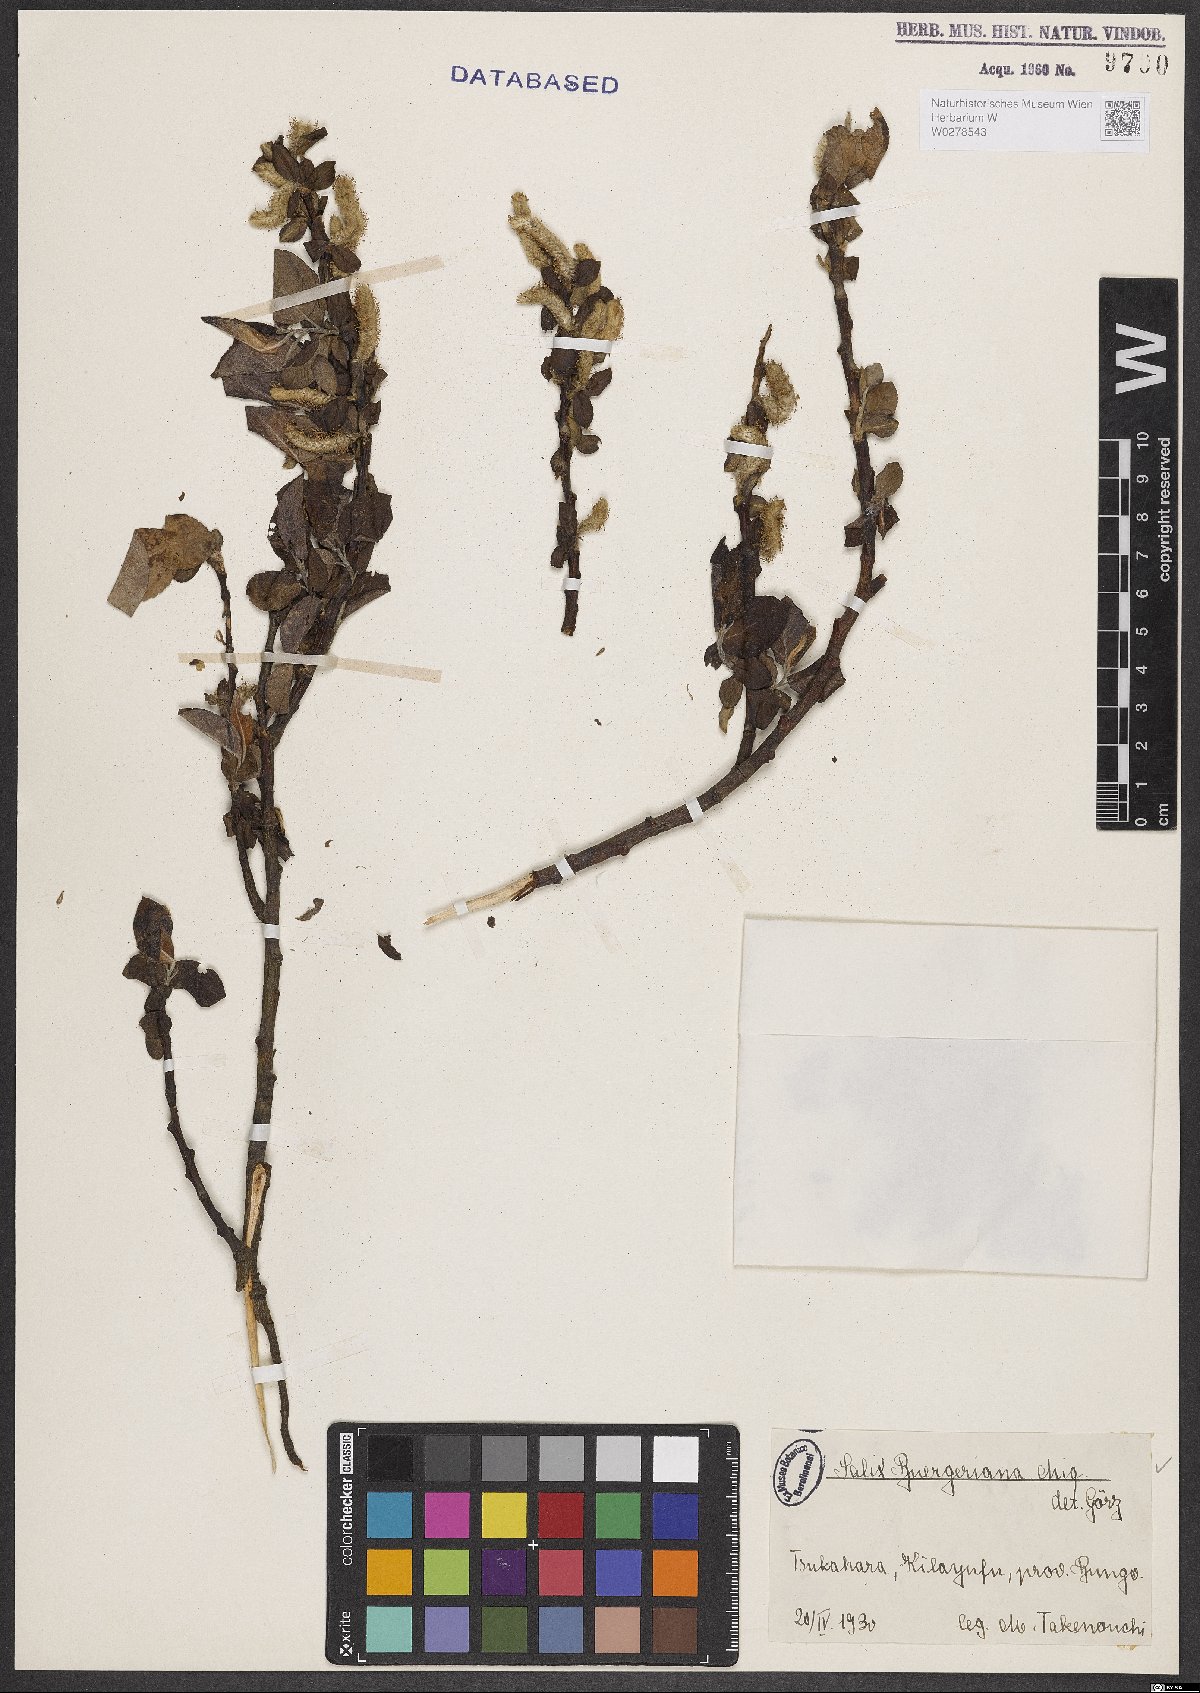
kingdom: Plantae
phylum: Tracheophyta
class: Magnoliopsida
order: Malpighiales
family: Salicaceae
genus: Salix
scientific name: Salix sieboldiana
